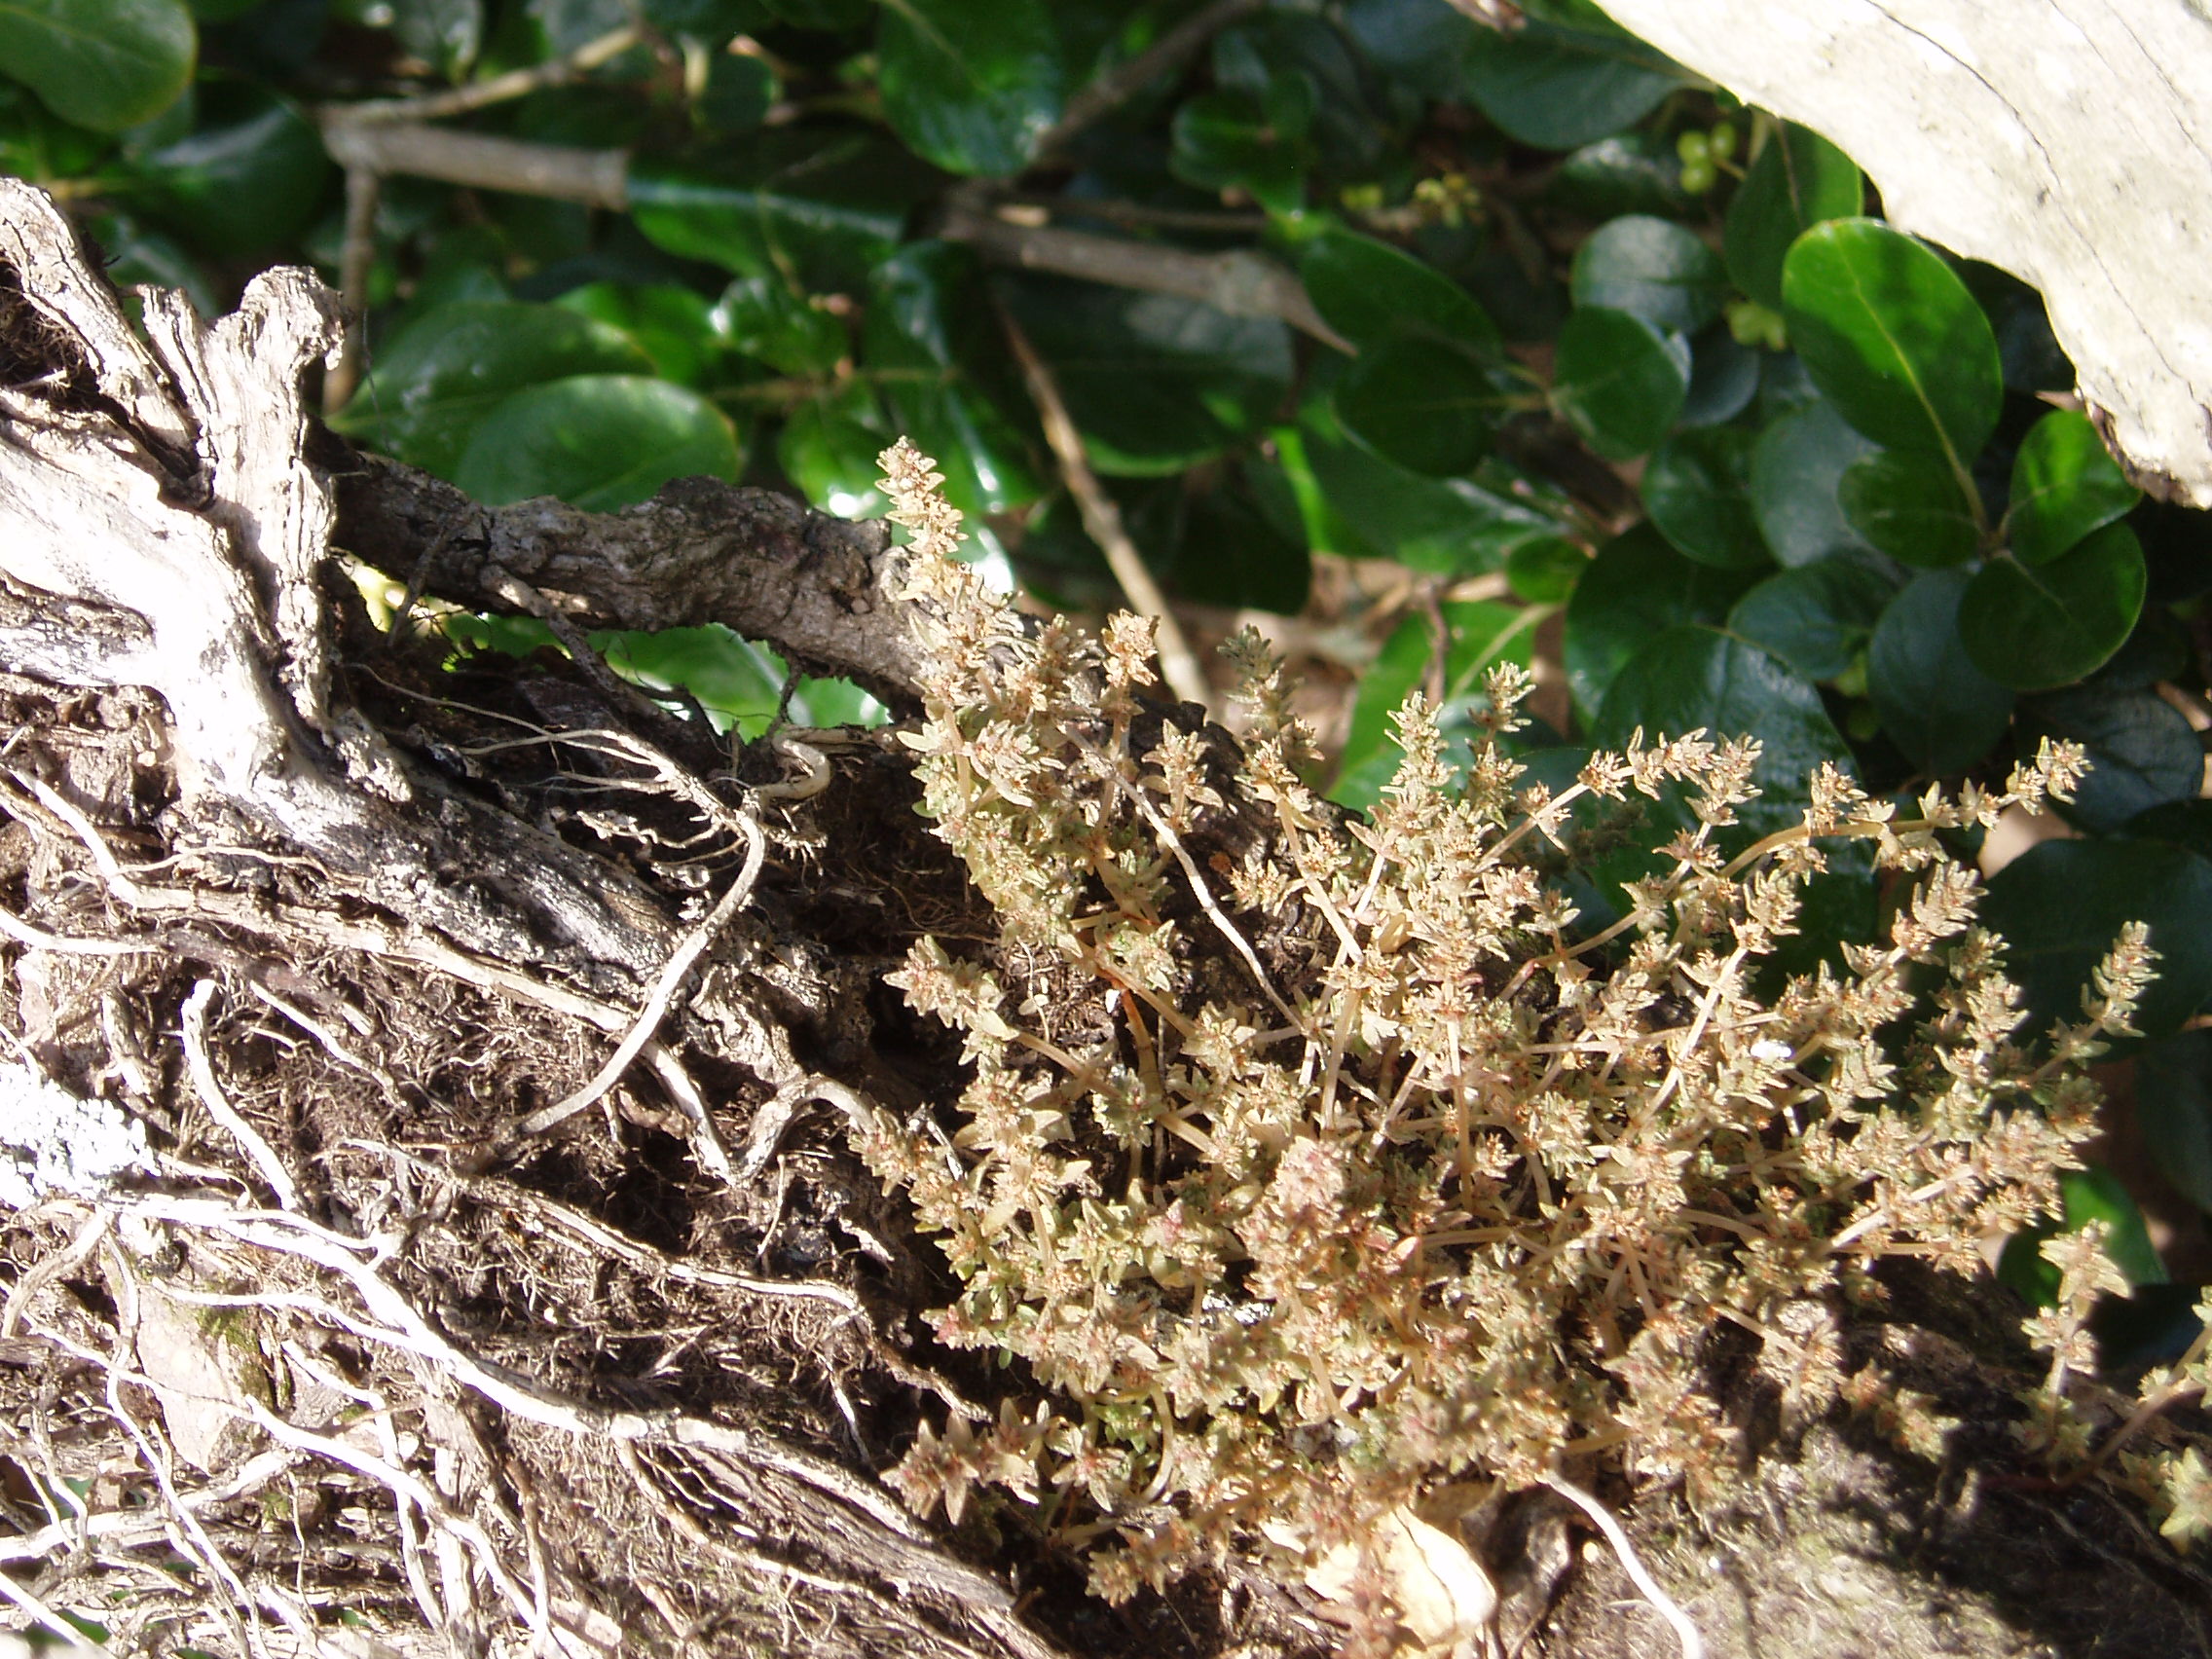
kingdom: Plantae
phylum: Tracheophyta
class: Magnoliopsida
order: Saxifragales
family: Crassulaceae
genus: Crassula
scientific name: Crassula sieberiana
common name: Siberian pygmyweed
